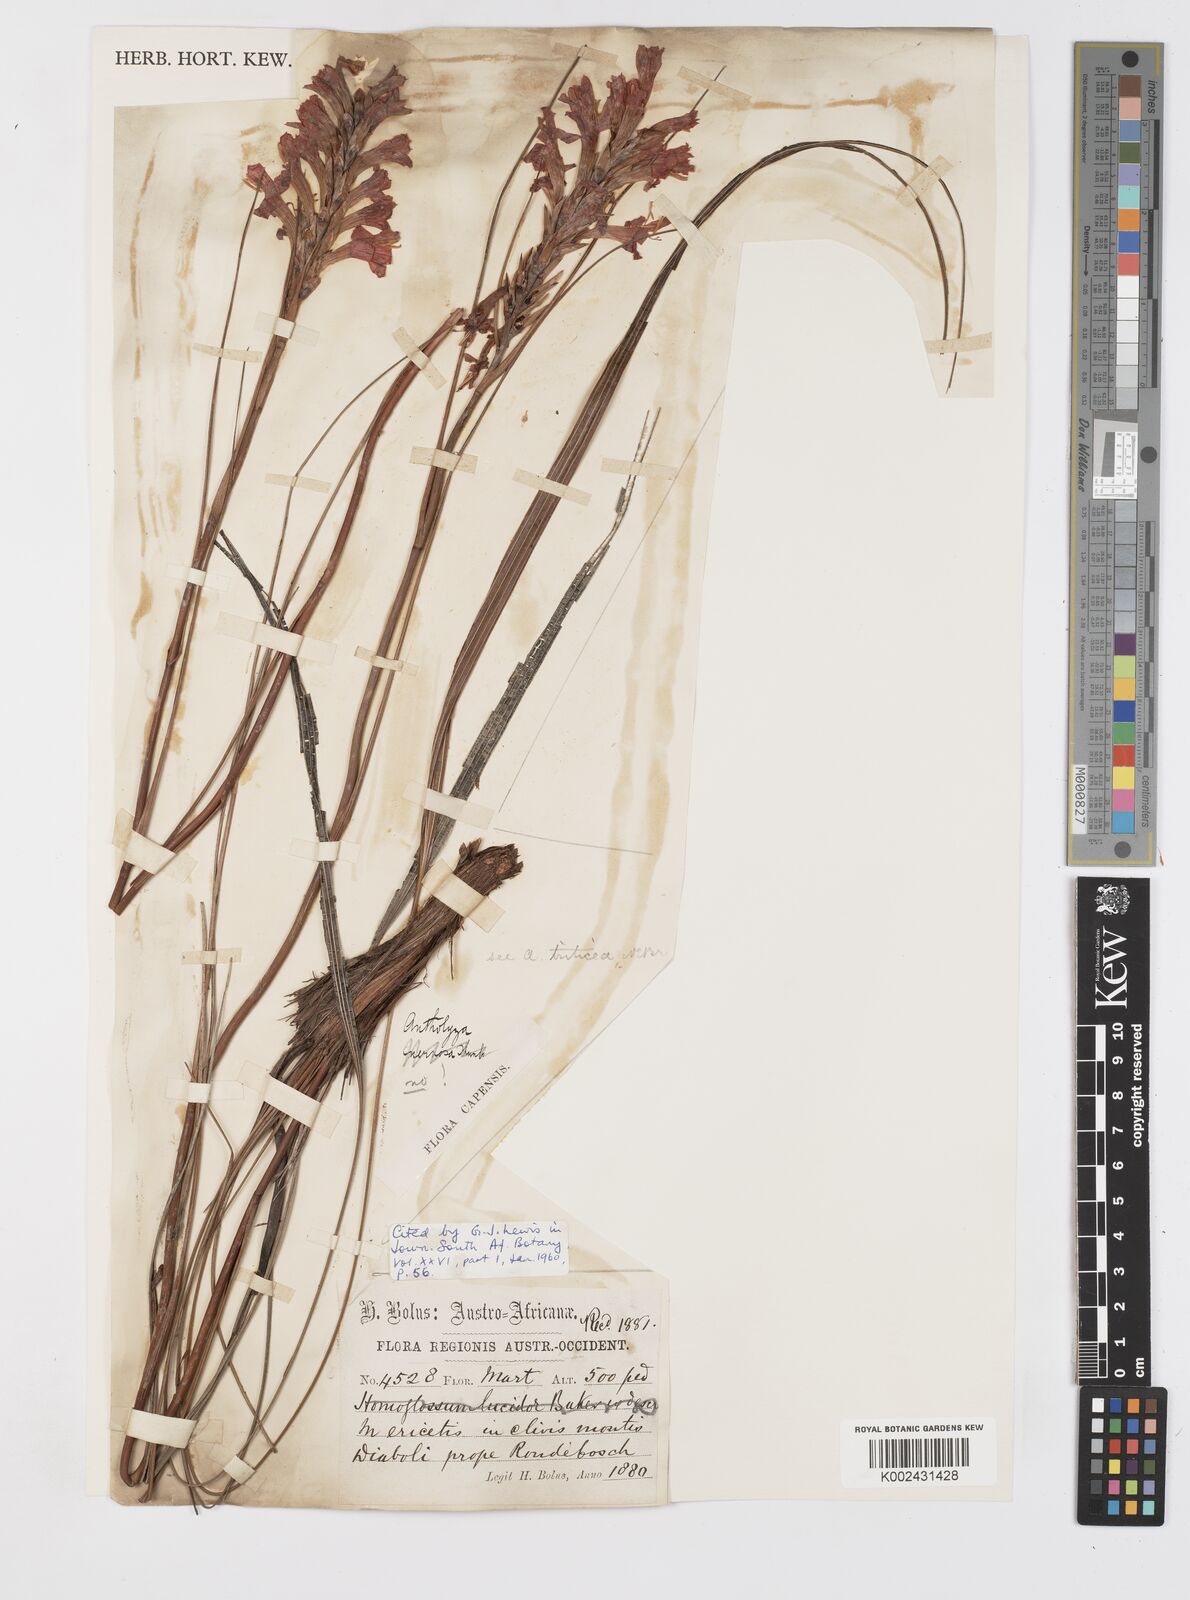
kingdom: Plantae
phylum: Tracheophyta
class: Liliopsida
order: Asparagales
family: Iridaceae
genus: Tritoniopsis
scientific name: Tritoniopsis triticea
